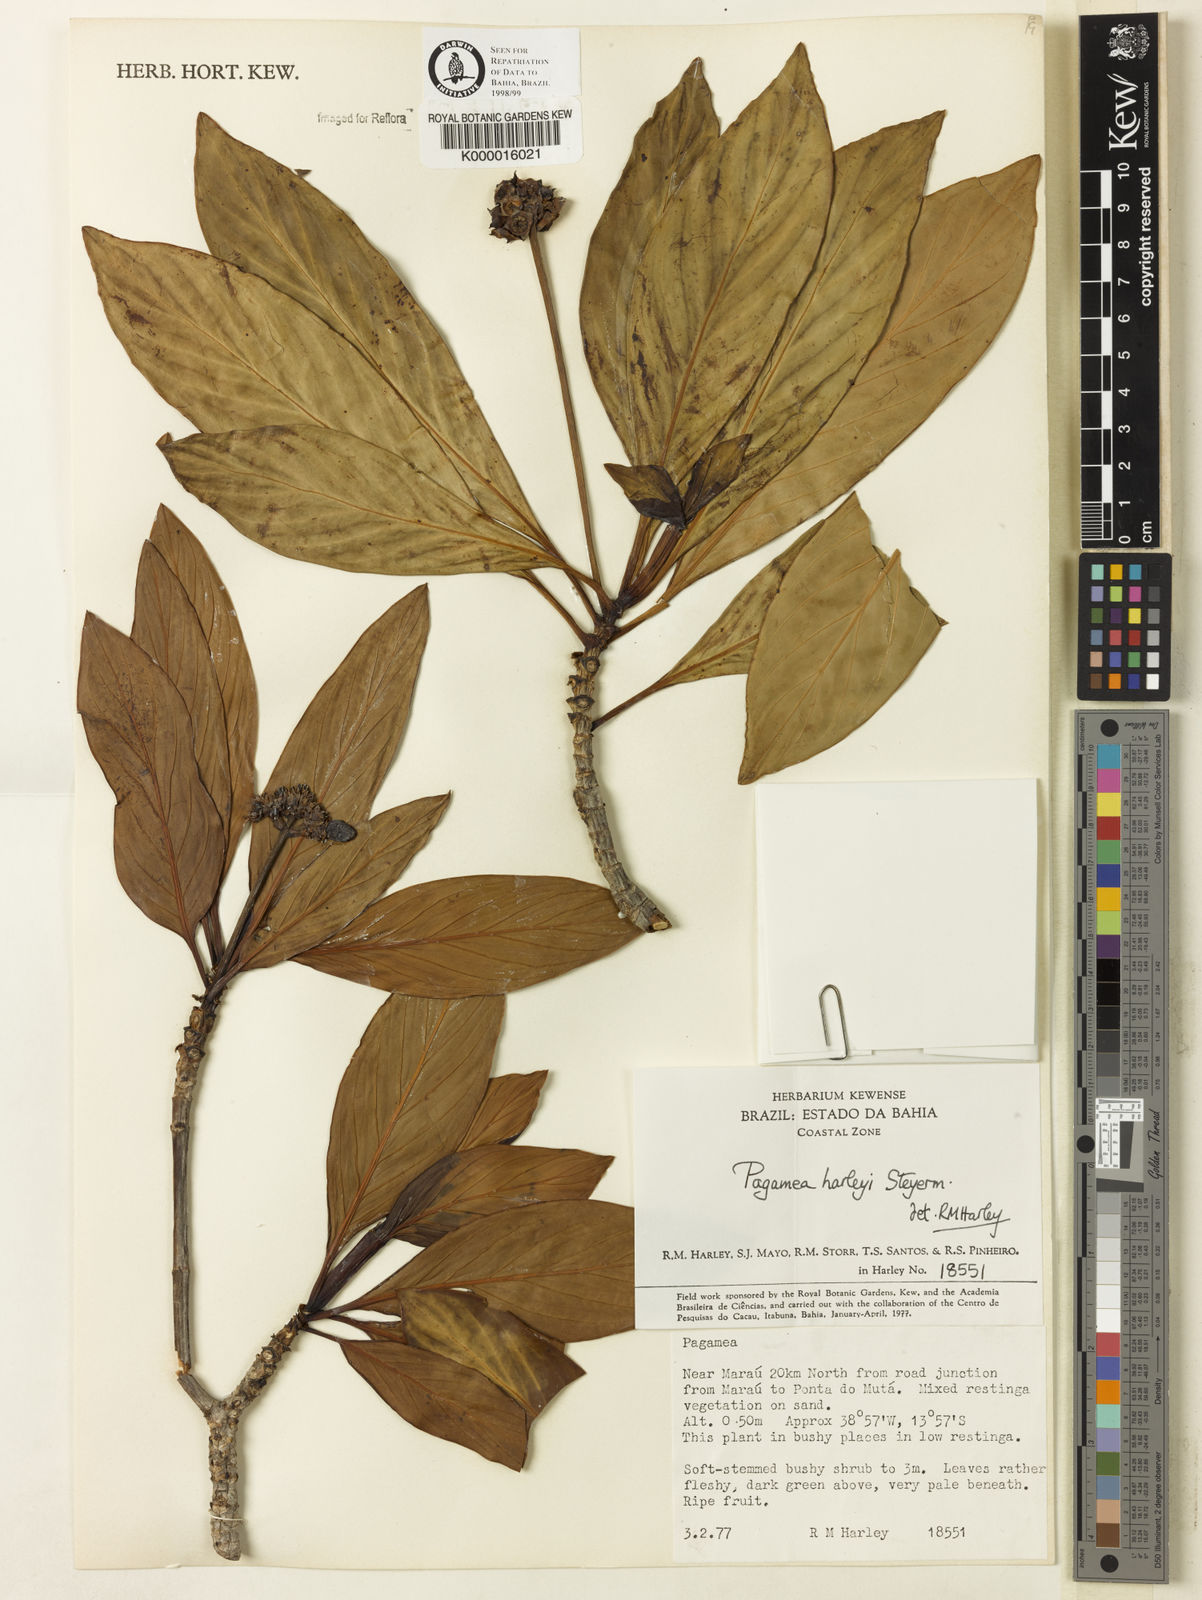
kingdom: Plantae
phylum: Tracheophyta
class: Magnoliopsida
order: Gentianales
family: Rubiaceae
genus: Pagamea
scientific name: Pagamea harleyi
